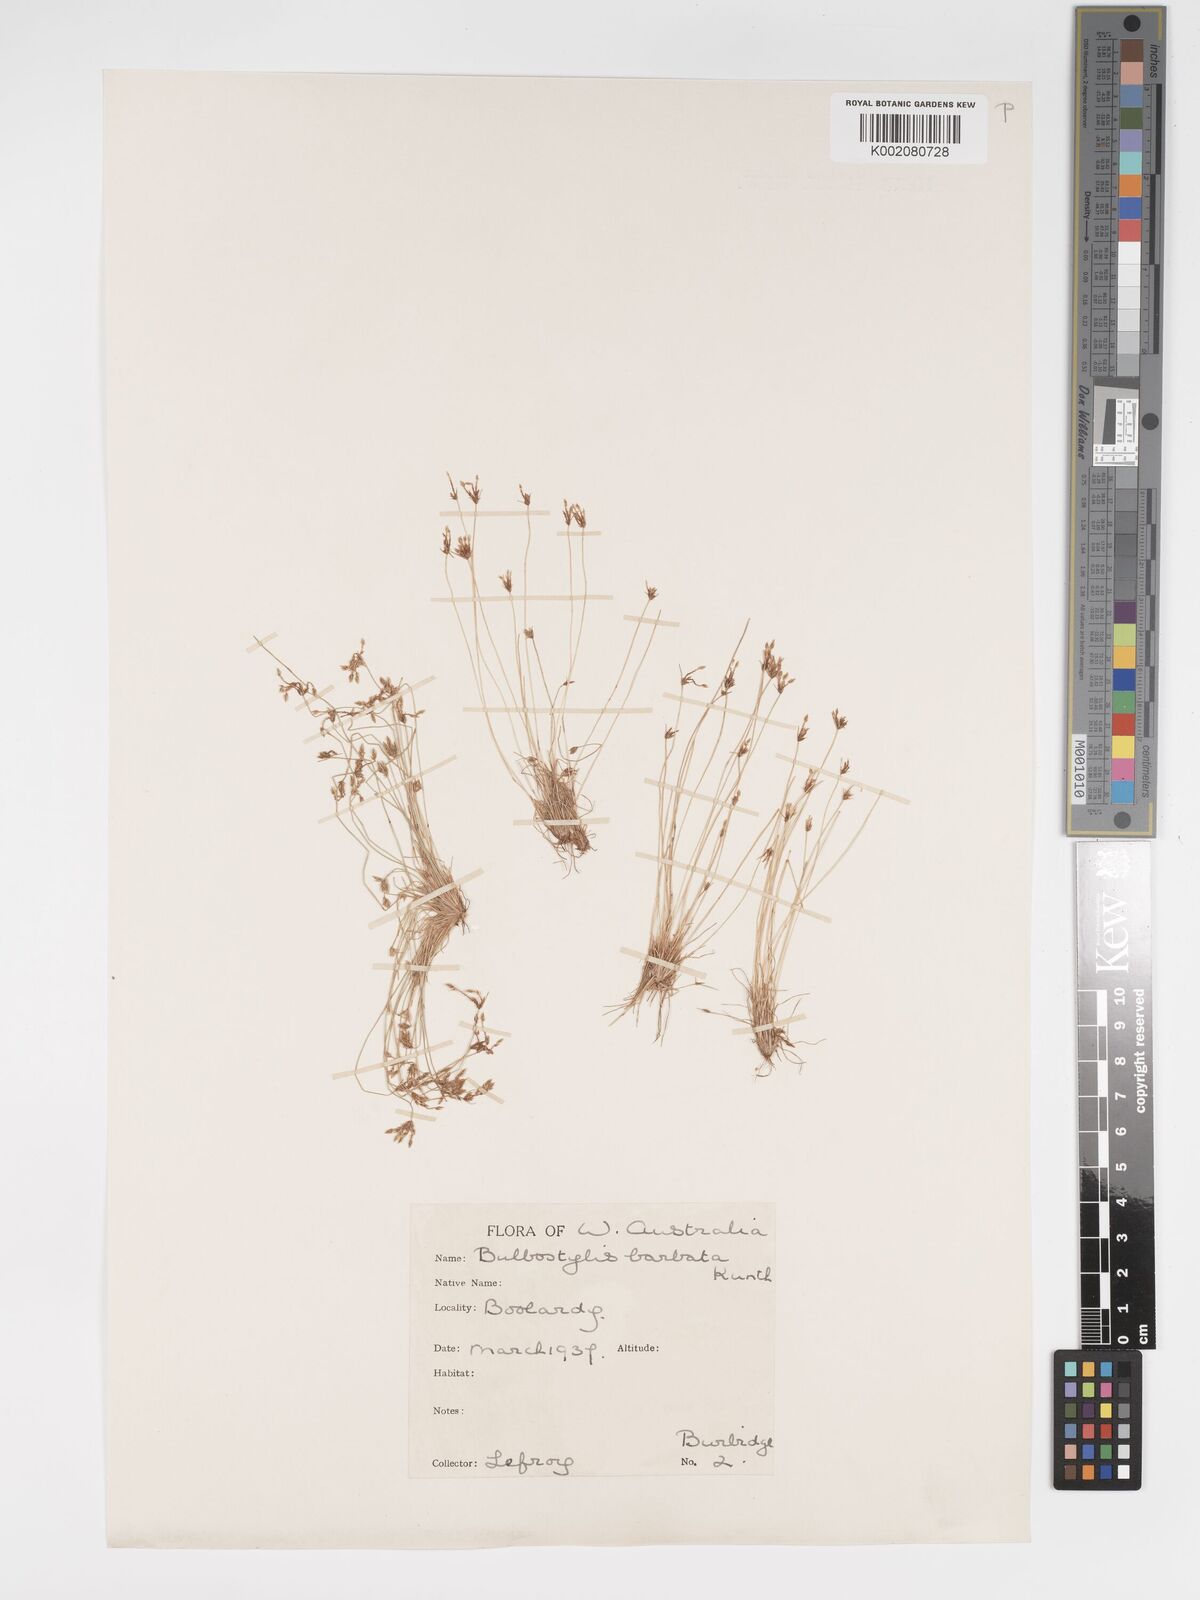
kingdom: Plantae
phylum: Tracheophyta
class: Liliopsida
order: Poales
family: Cyperaceae
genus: Bulbostylis
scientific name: Bulbostylis barbata
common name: Watergrass
